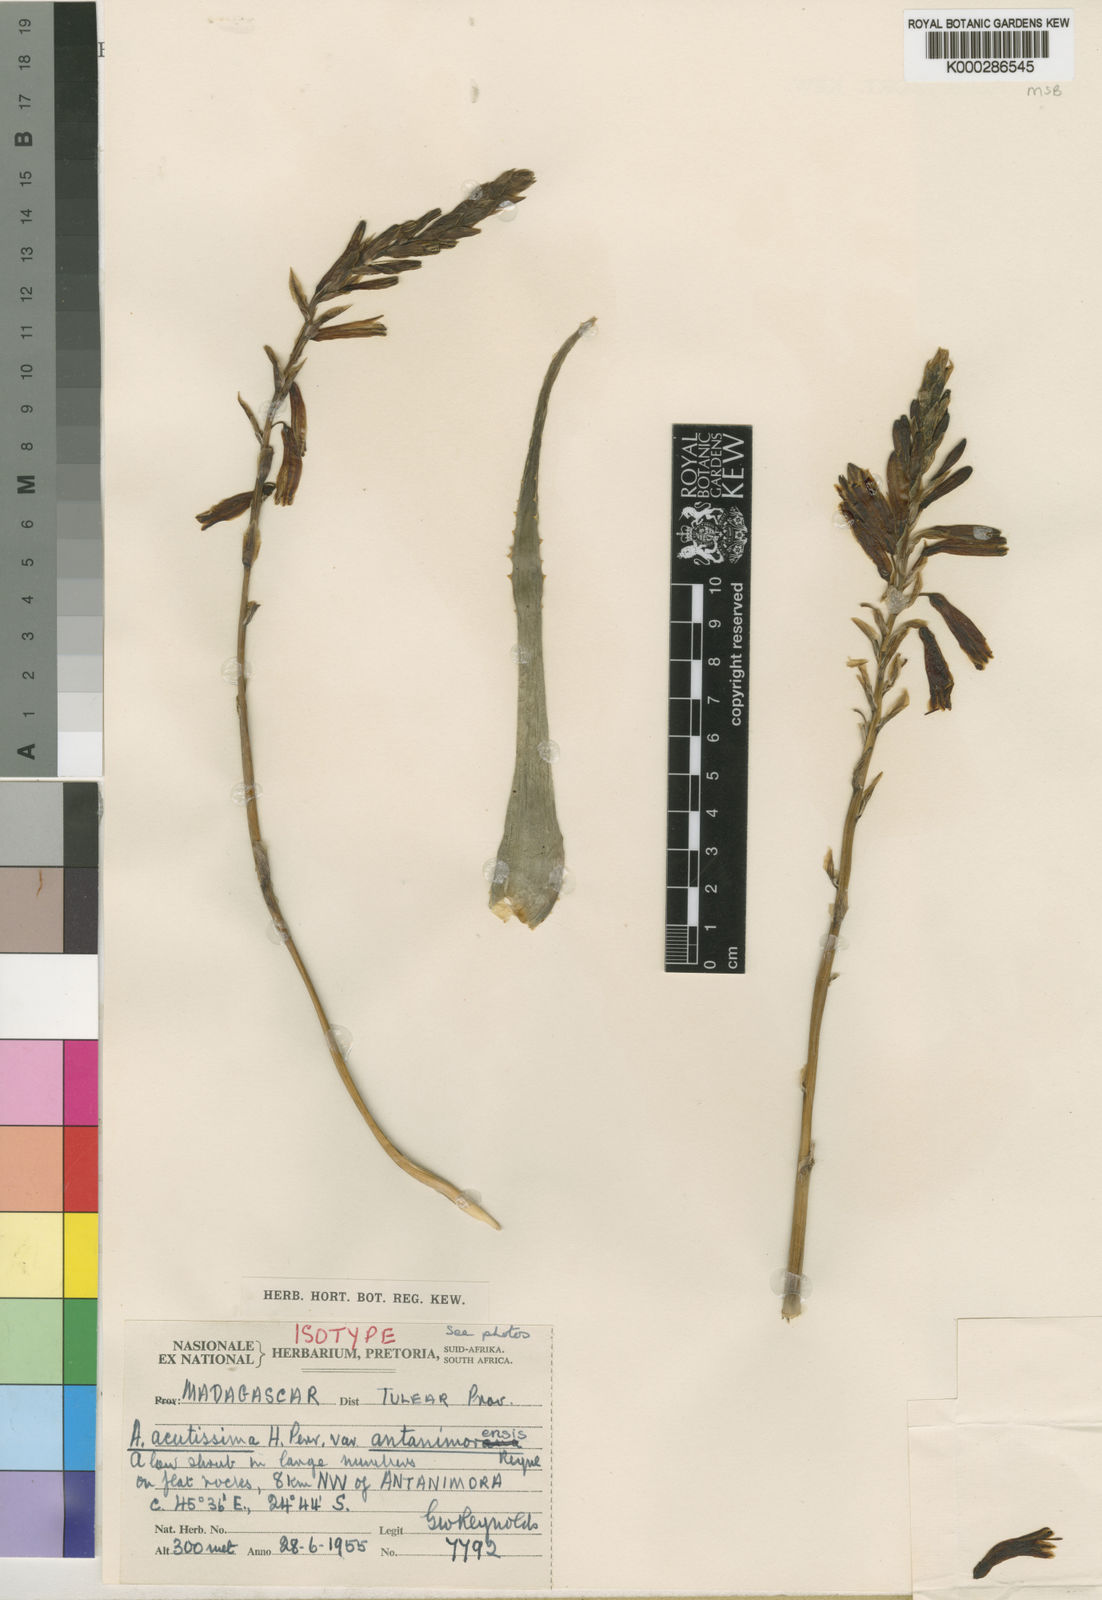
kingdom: Plantae
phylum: Tracheophyta
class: Liliopsida
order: Asparagales
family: Asphodelaceae
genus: Aloe
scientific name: Aloe acutissima
